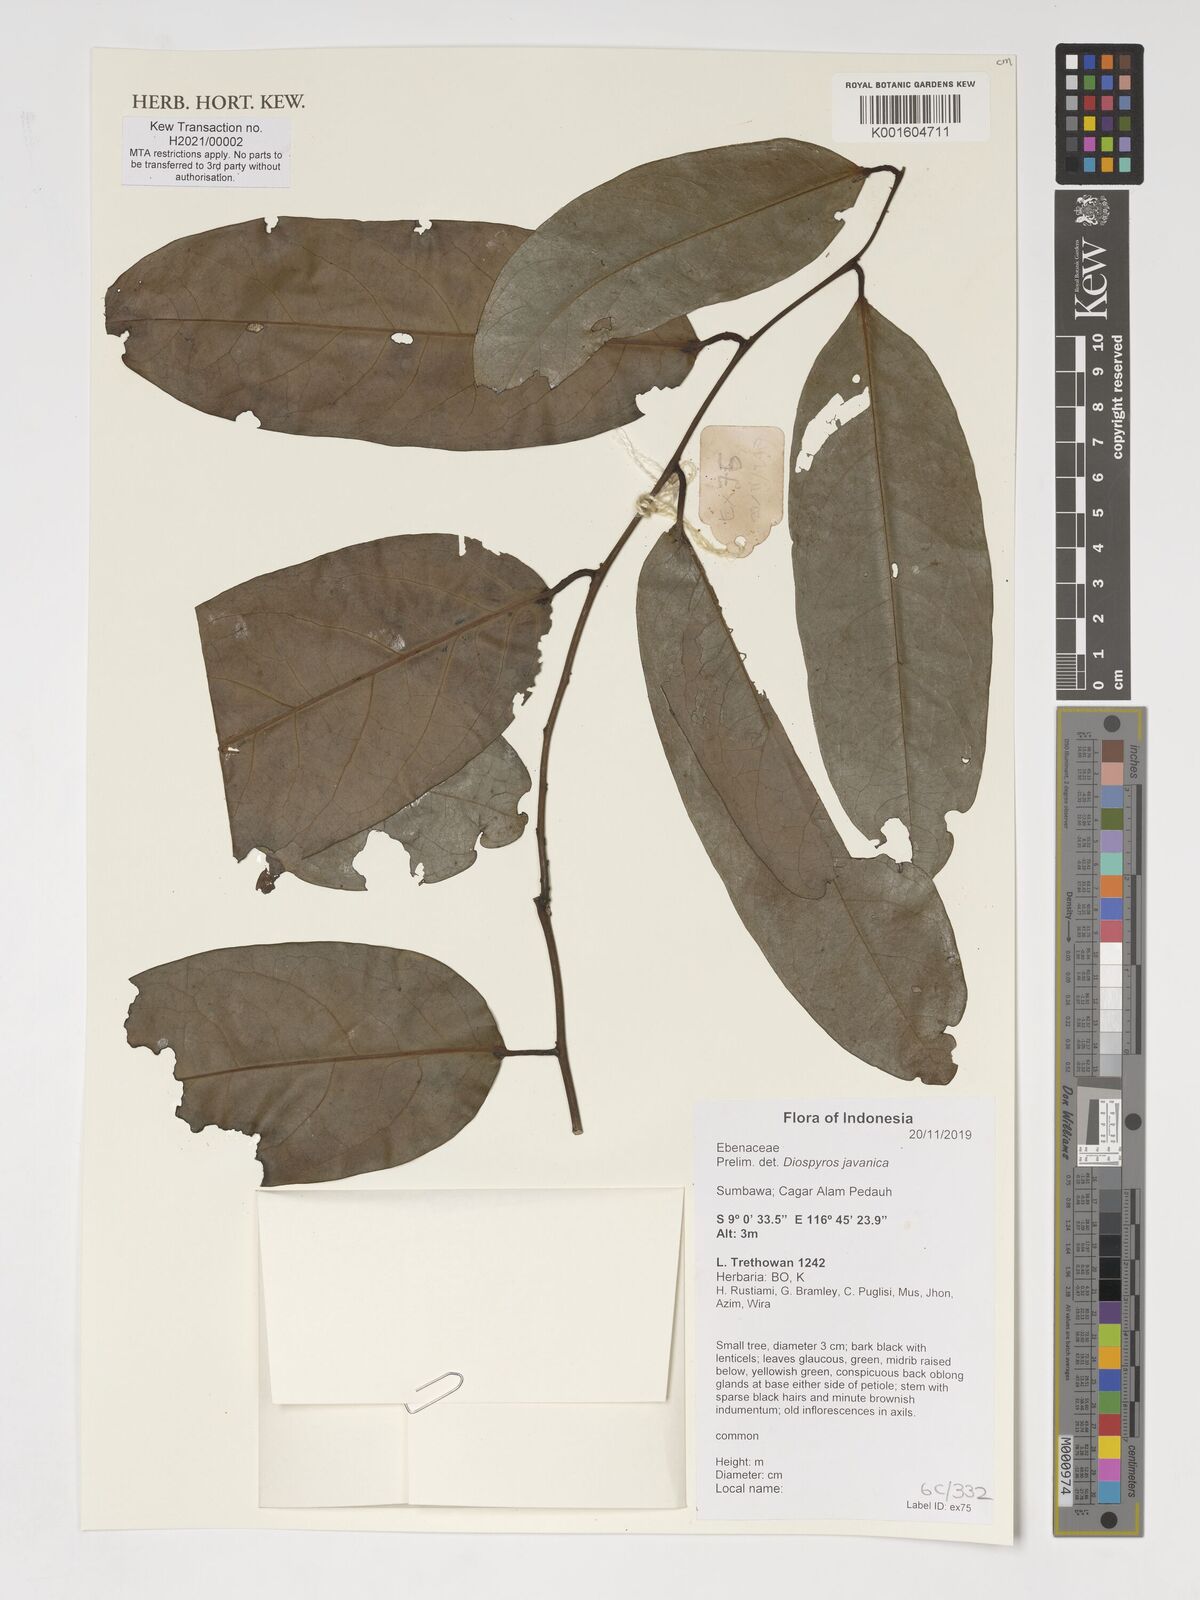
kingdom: Plantae
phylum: Tracheophyta
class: Magnoliopsida
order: Ericales
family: Ebenaceae
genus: Diospyros
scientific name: Diospyros javanica
